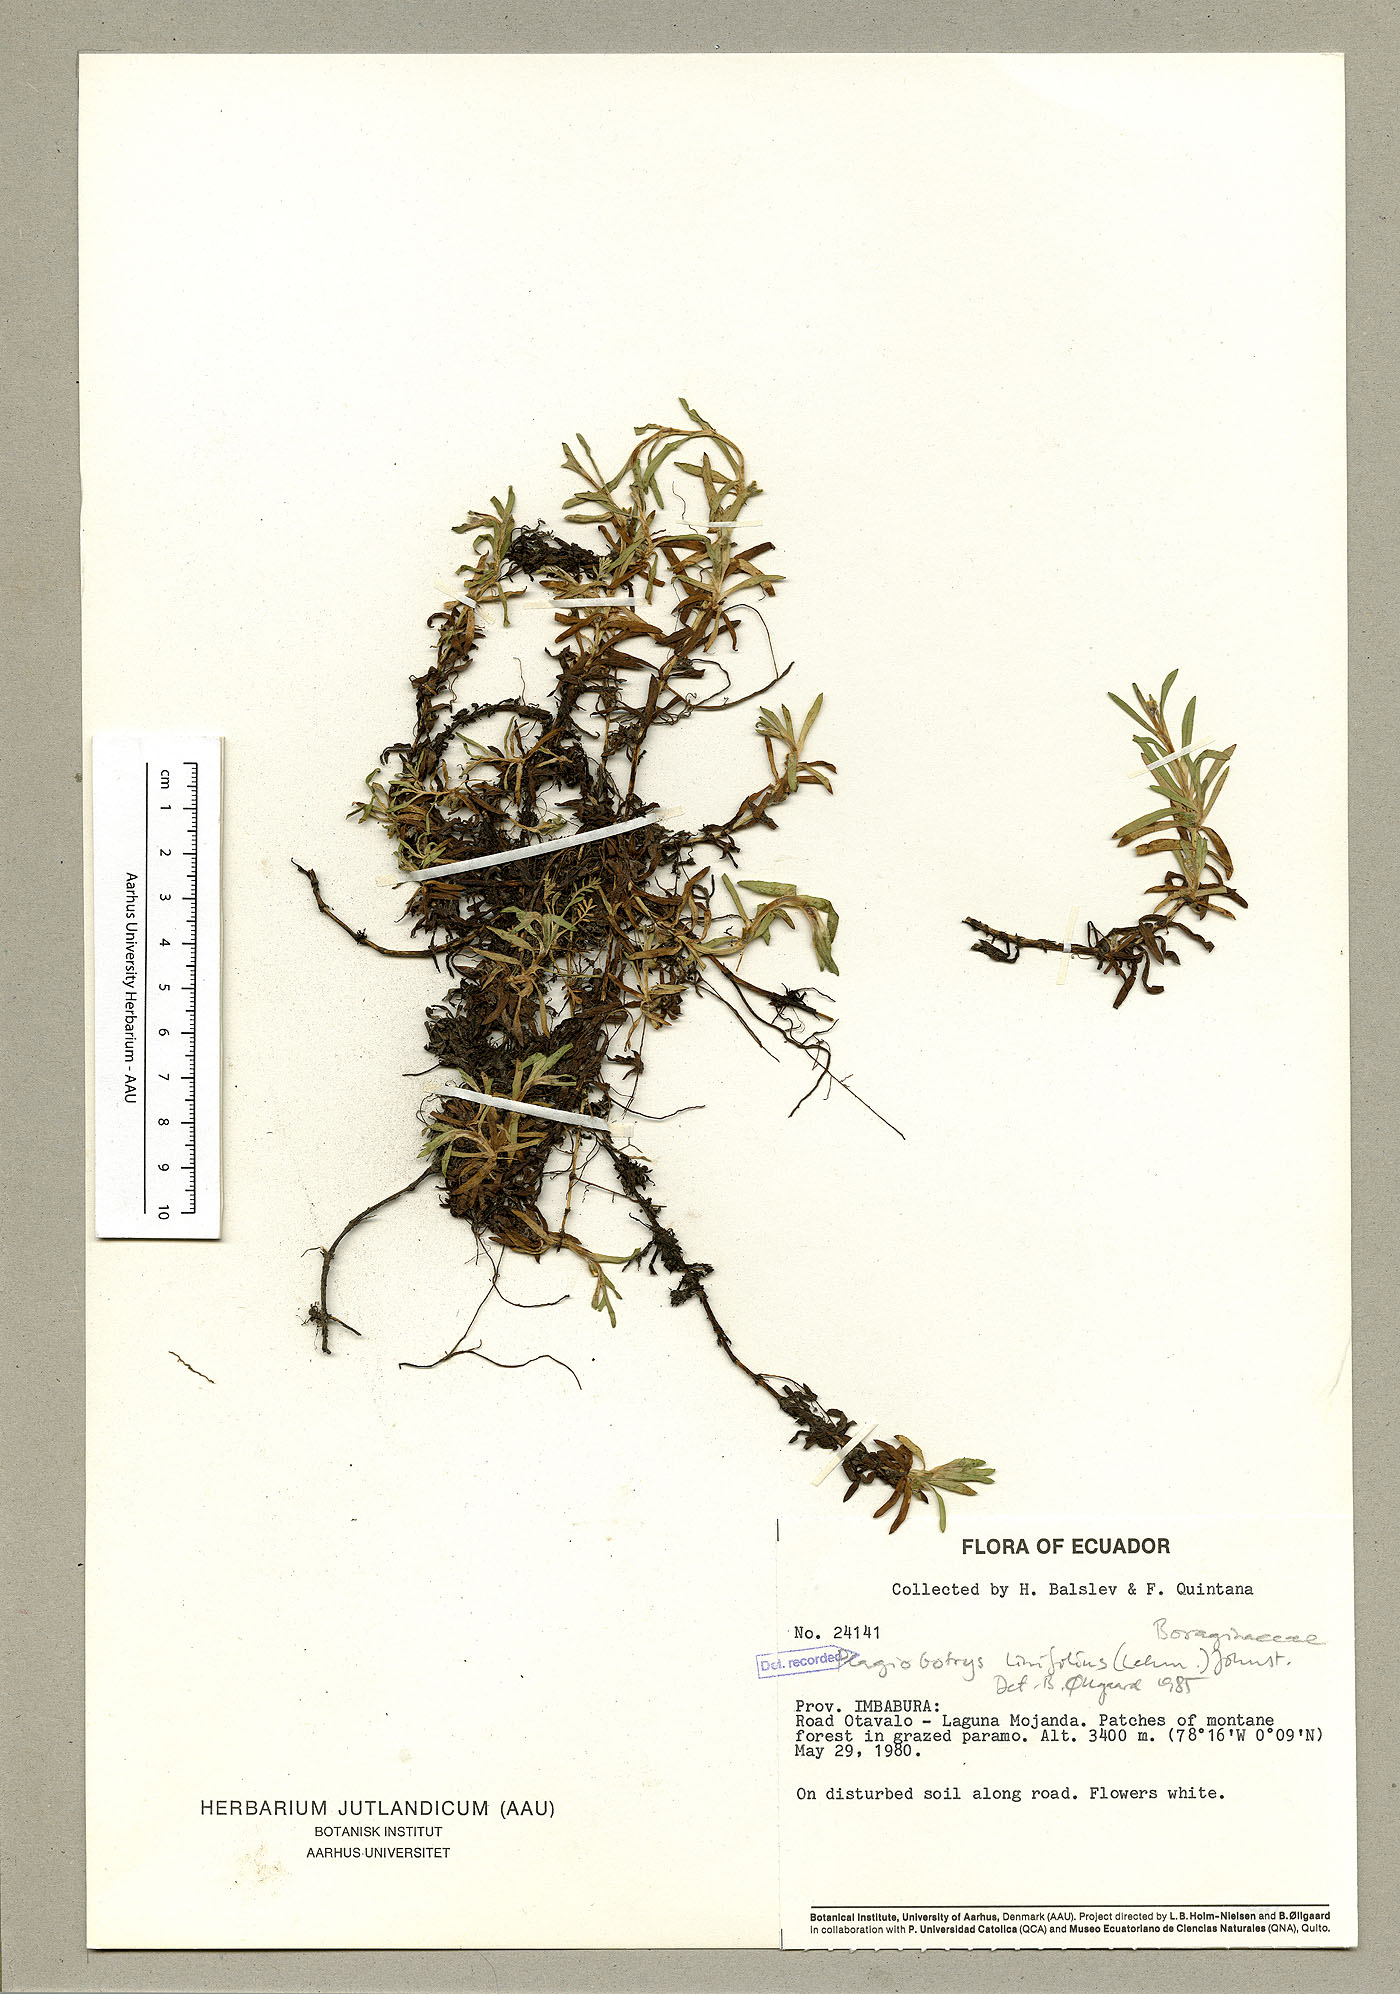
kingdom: Plantae
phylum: Tracheophyta
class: Magnoliopsida
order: Boraginales
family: Boraginaceae
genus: Plagiobothrys
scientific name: Plagiobothrys linifolius
